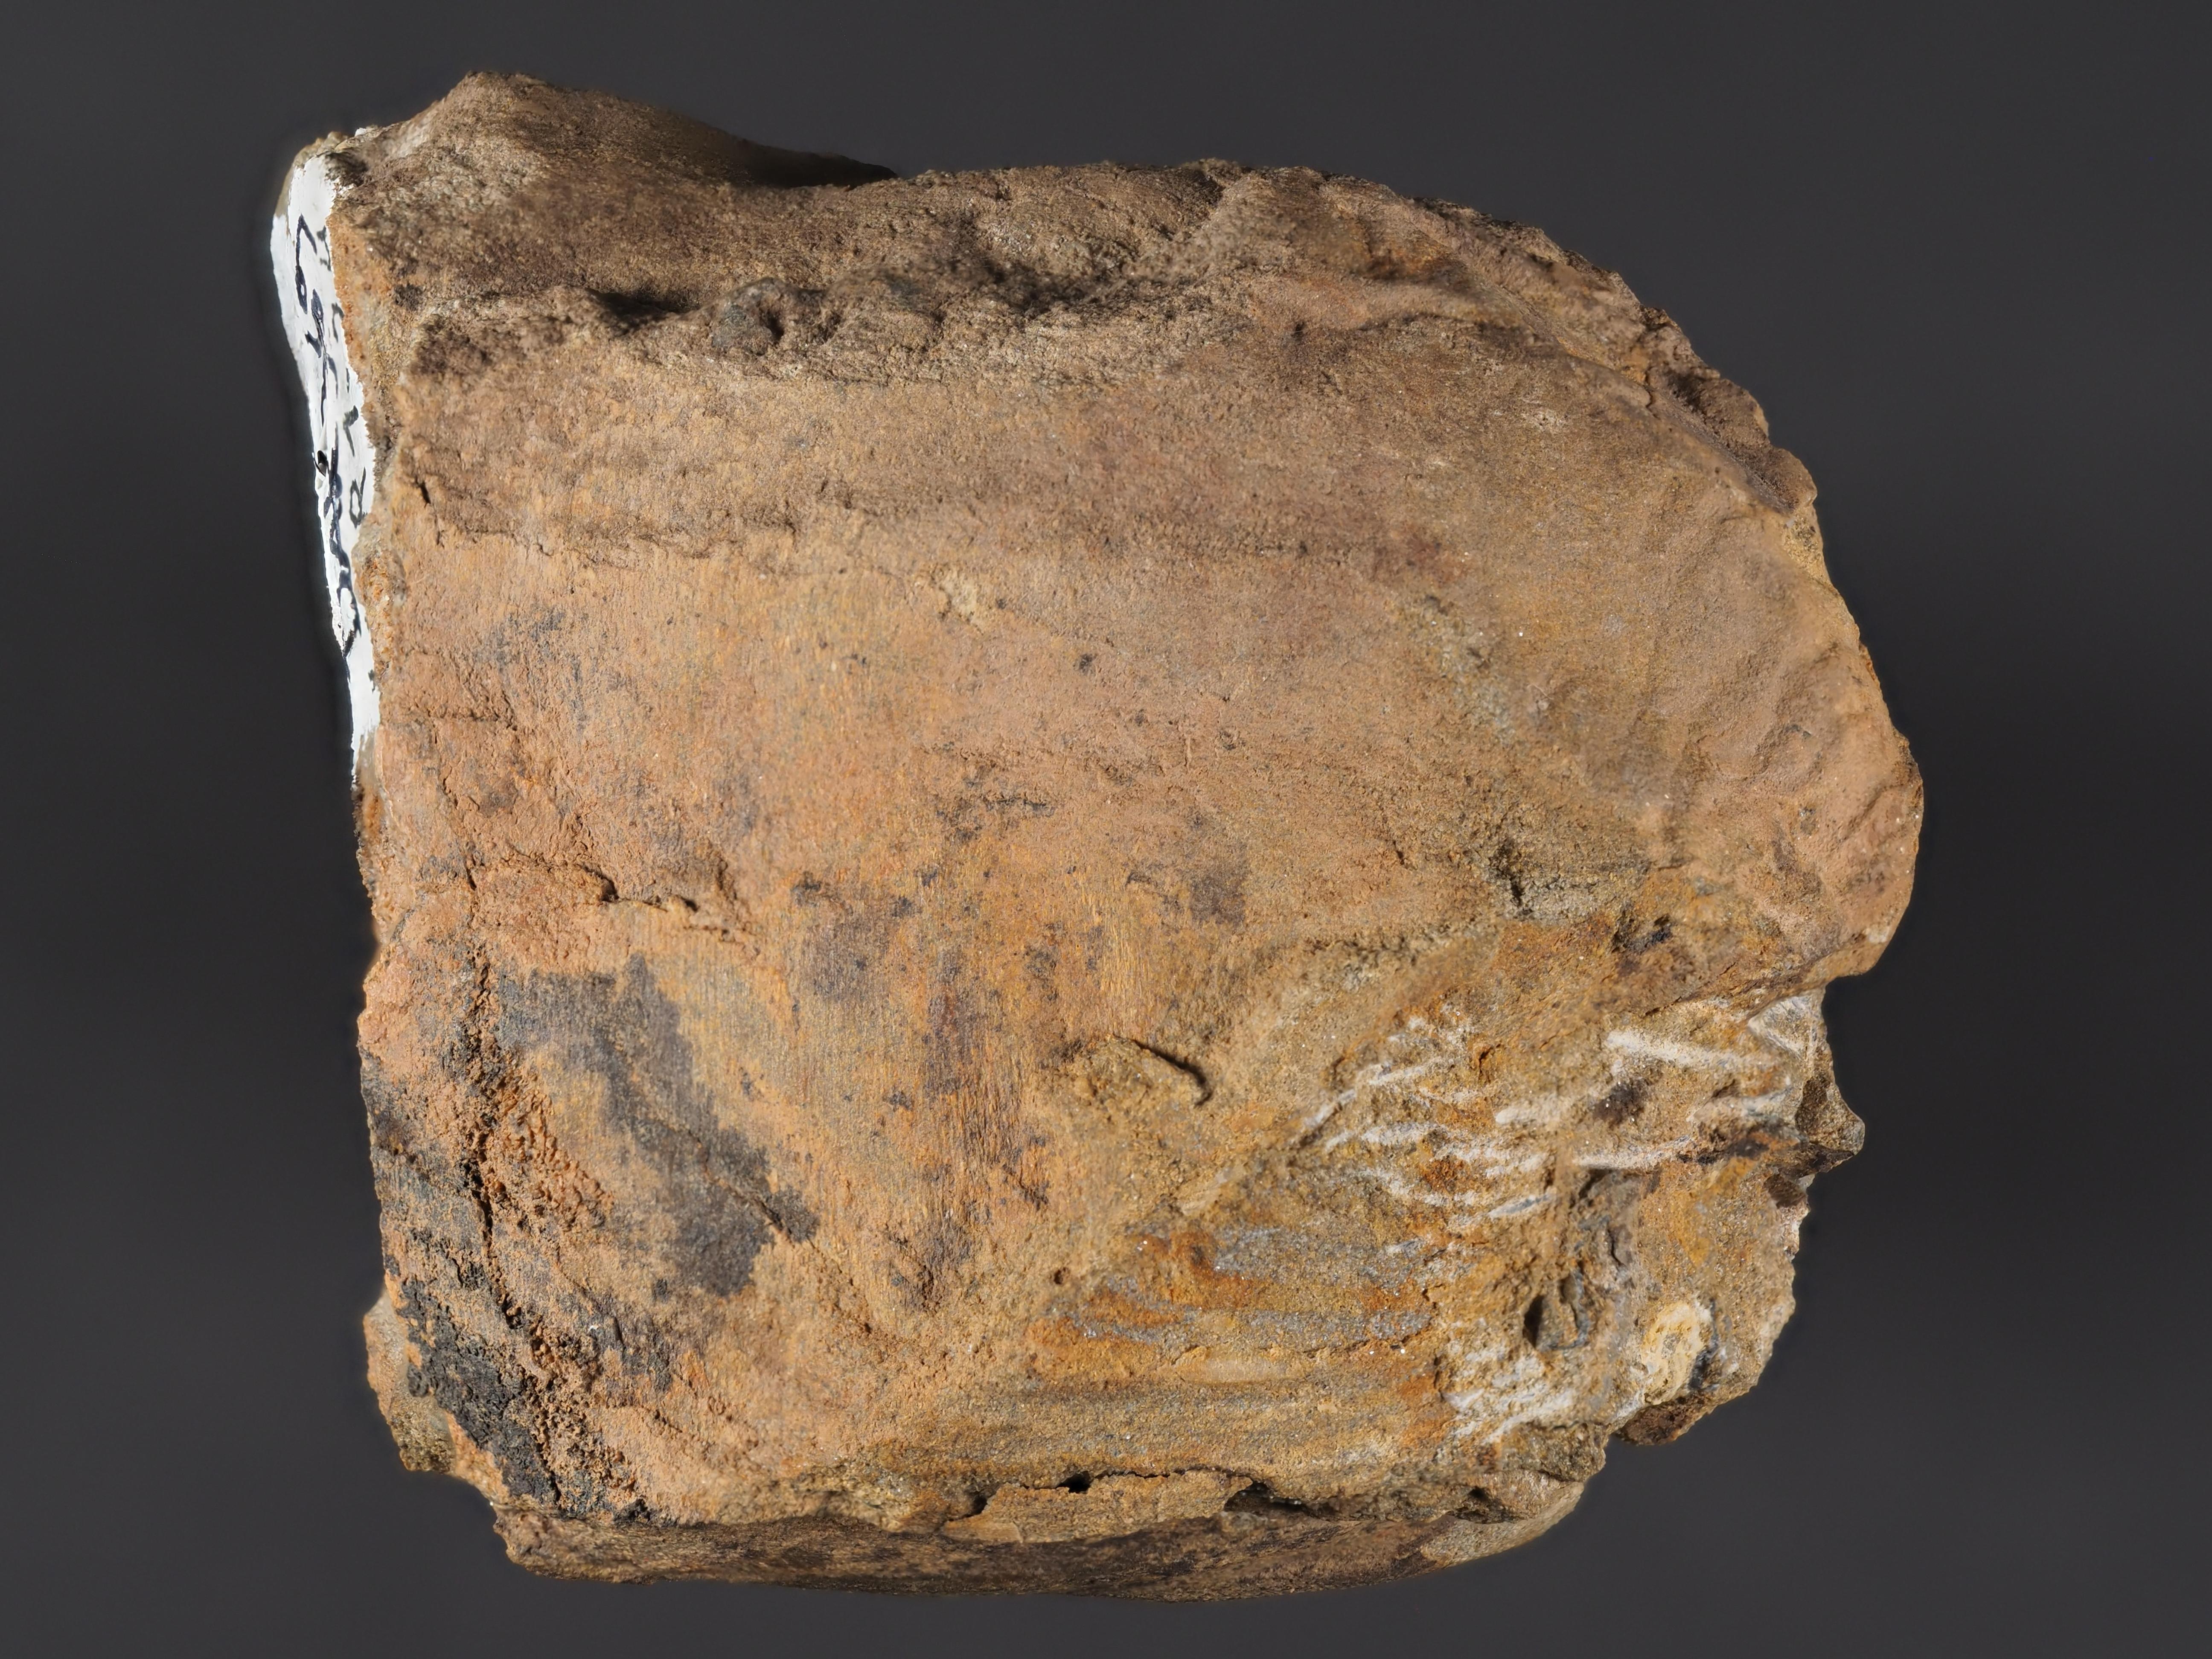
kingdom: Animalia
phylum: Mollusca
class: Bivalvia
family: Grammysiidae
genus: Grammysia
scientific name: Grammysia
